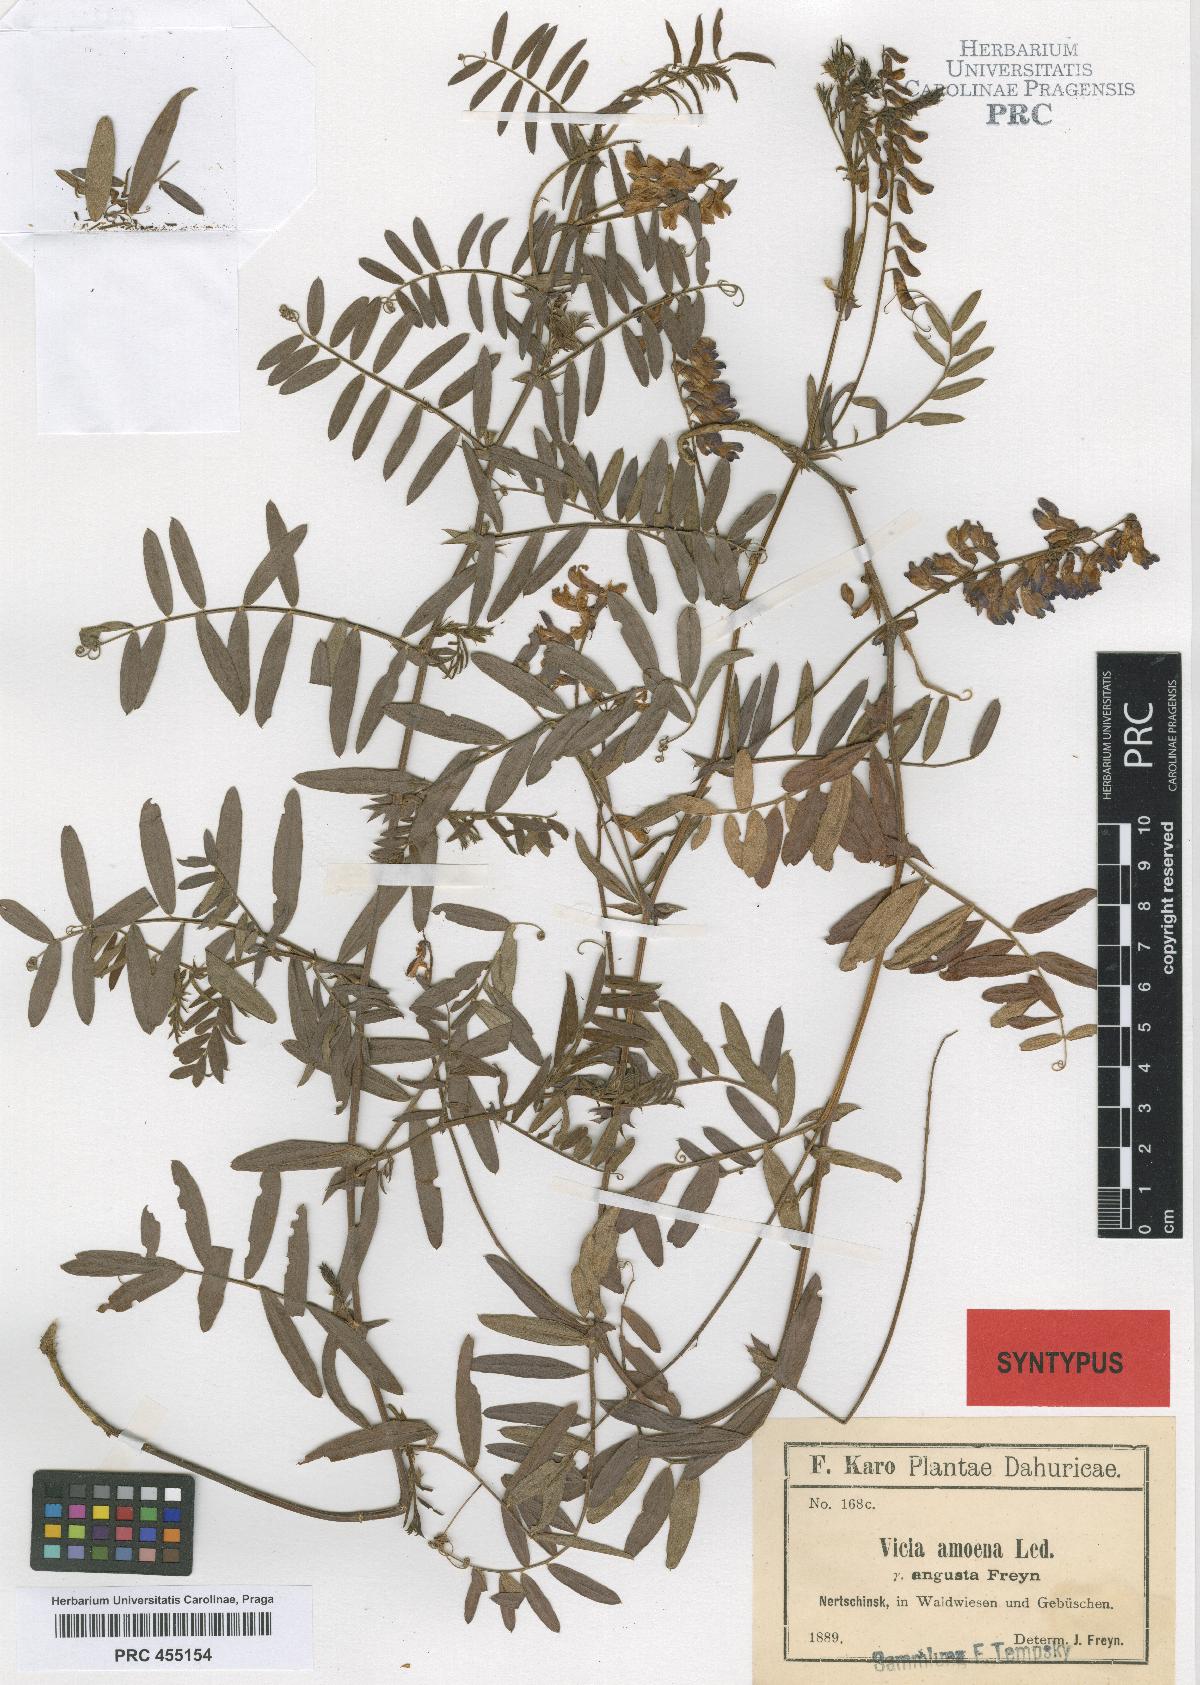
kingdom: Plantae
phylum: Tracheophyta
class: Magnoliopsida
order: Fabales
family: Fabaceae
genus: Vicia
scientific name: Vicia amoena
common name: Cheder ebs
